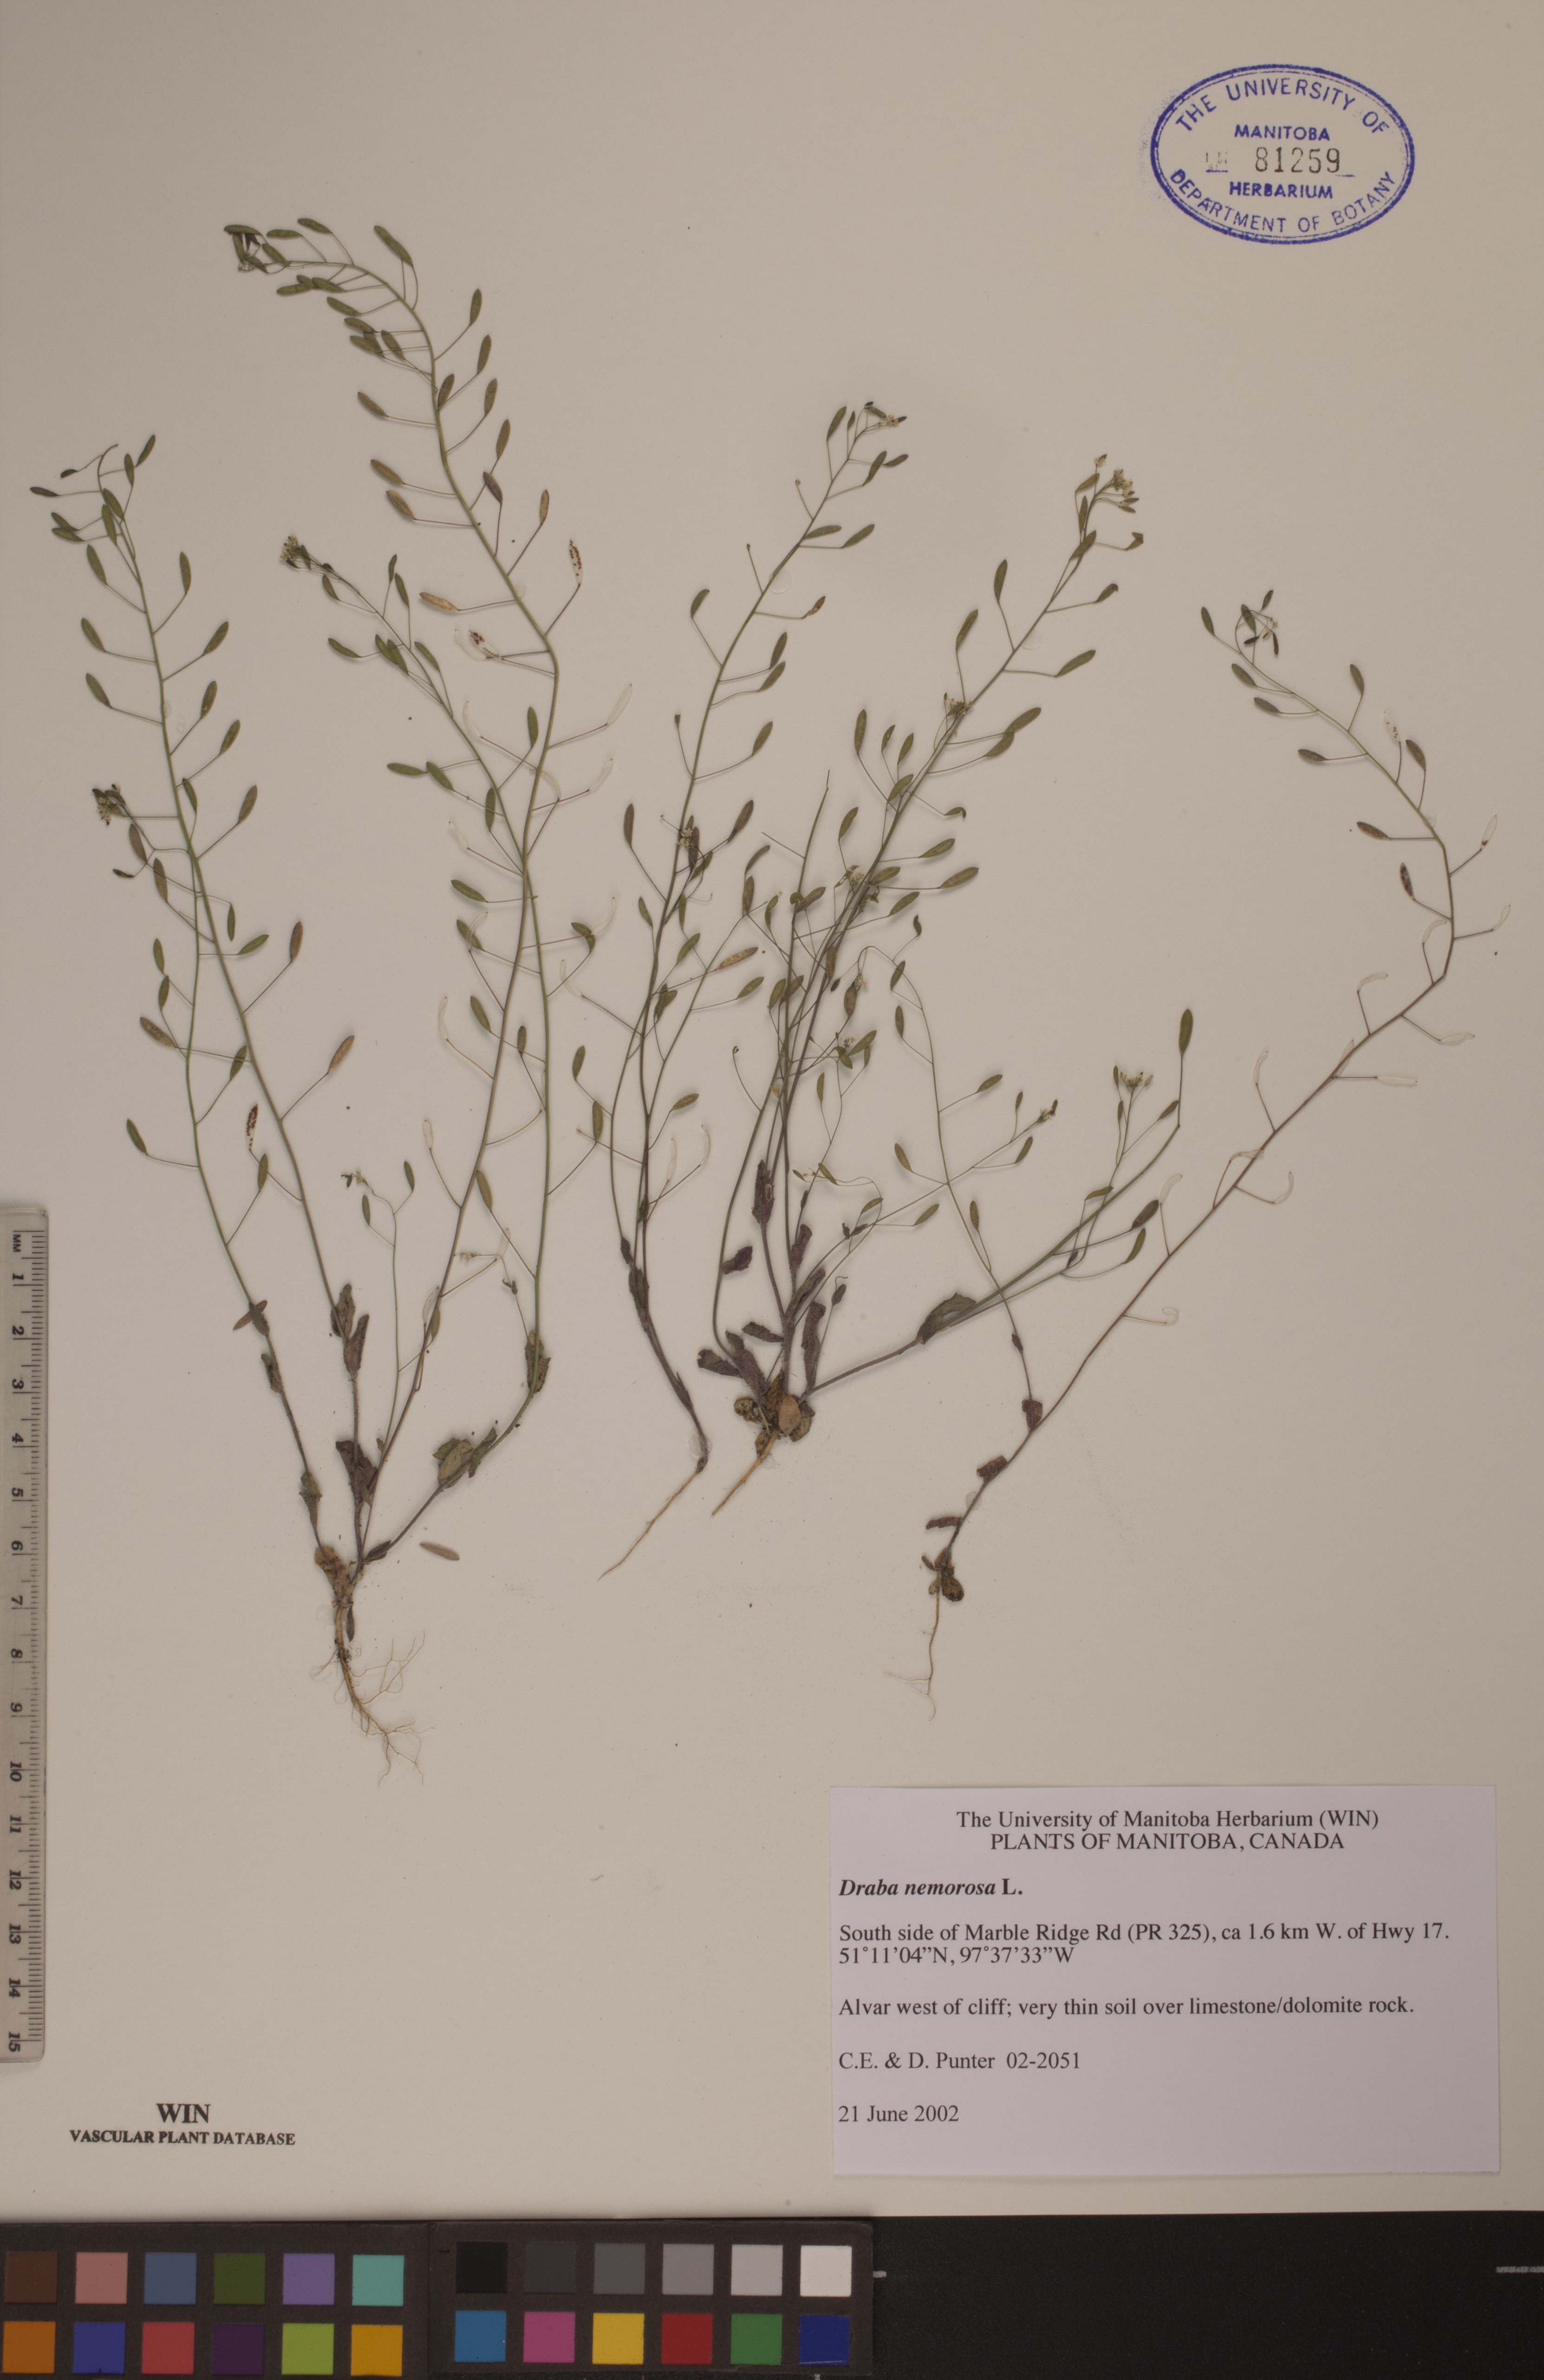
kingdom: Plantae
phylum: Tracheophyta
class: Magnoliopsida
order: Brassicales
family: Brassicaceae
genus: Draba
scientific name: Draba nemorosa
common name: Wood whitlow-grass
